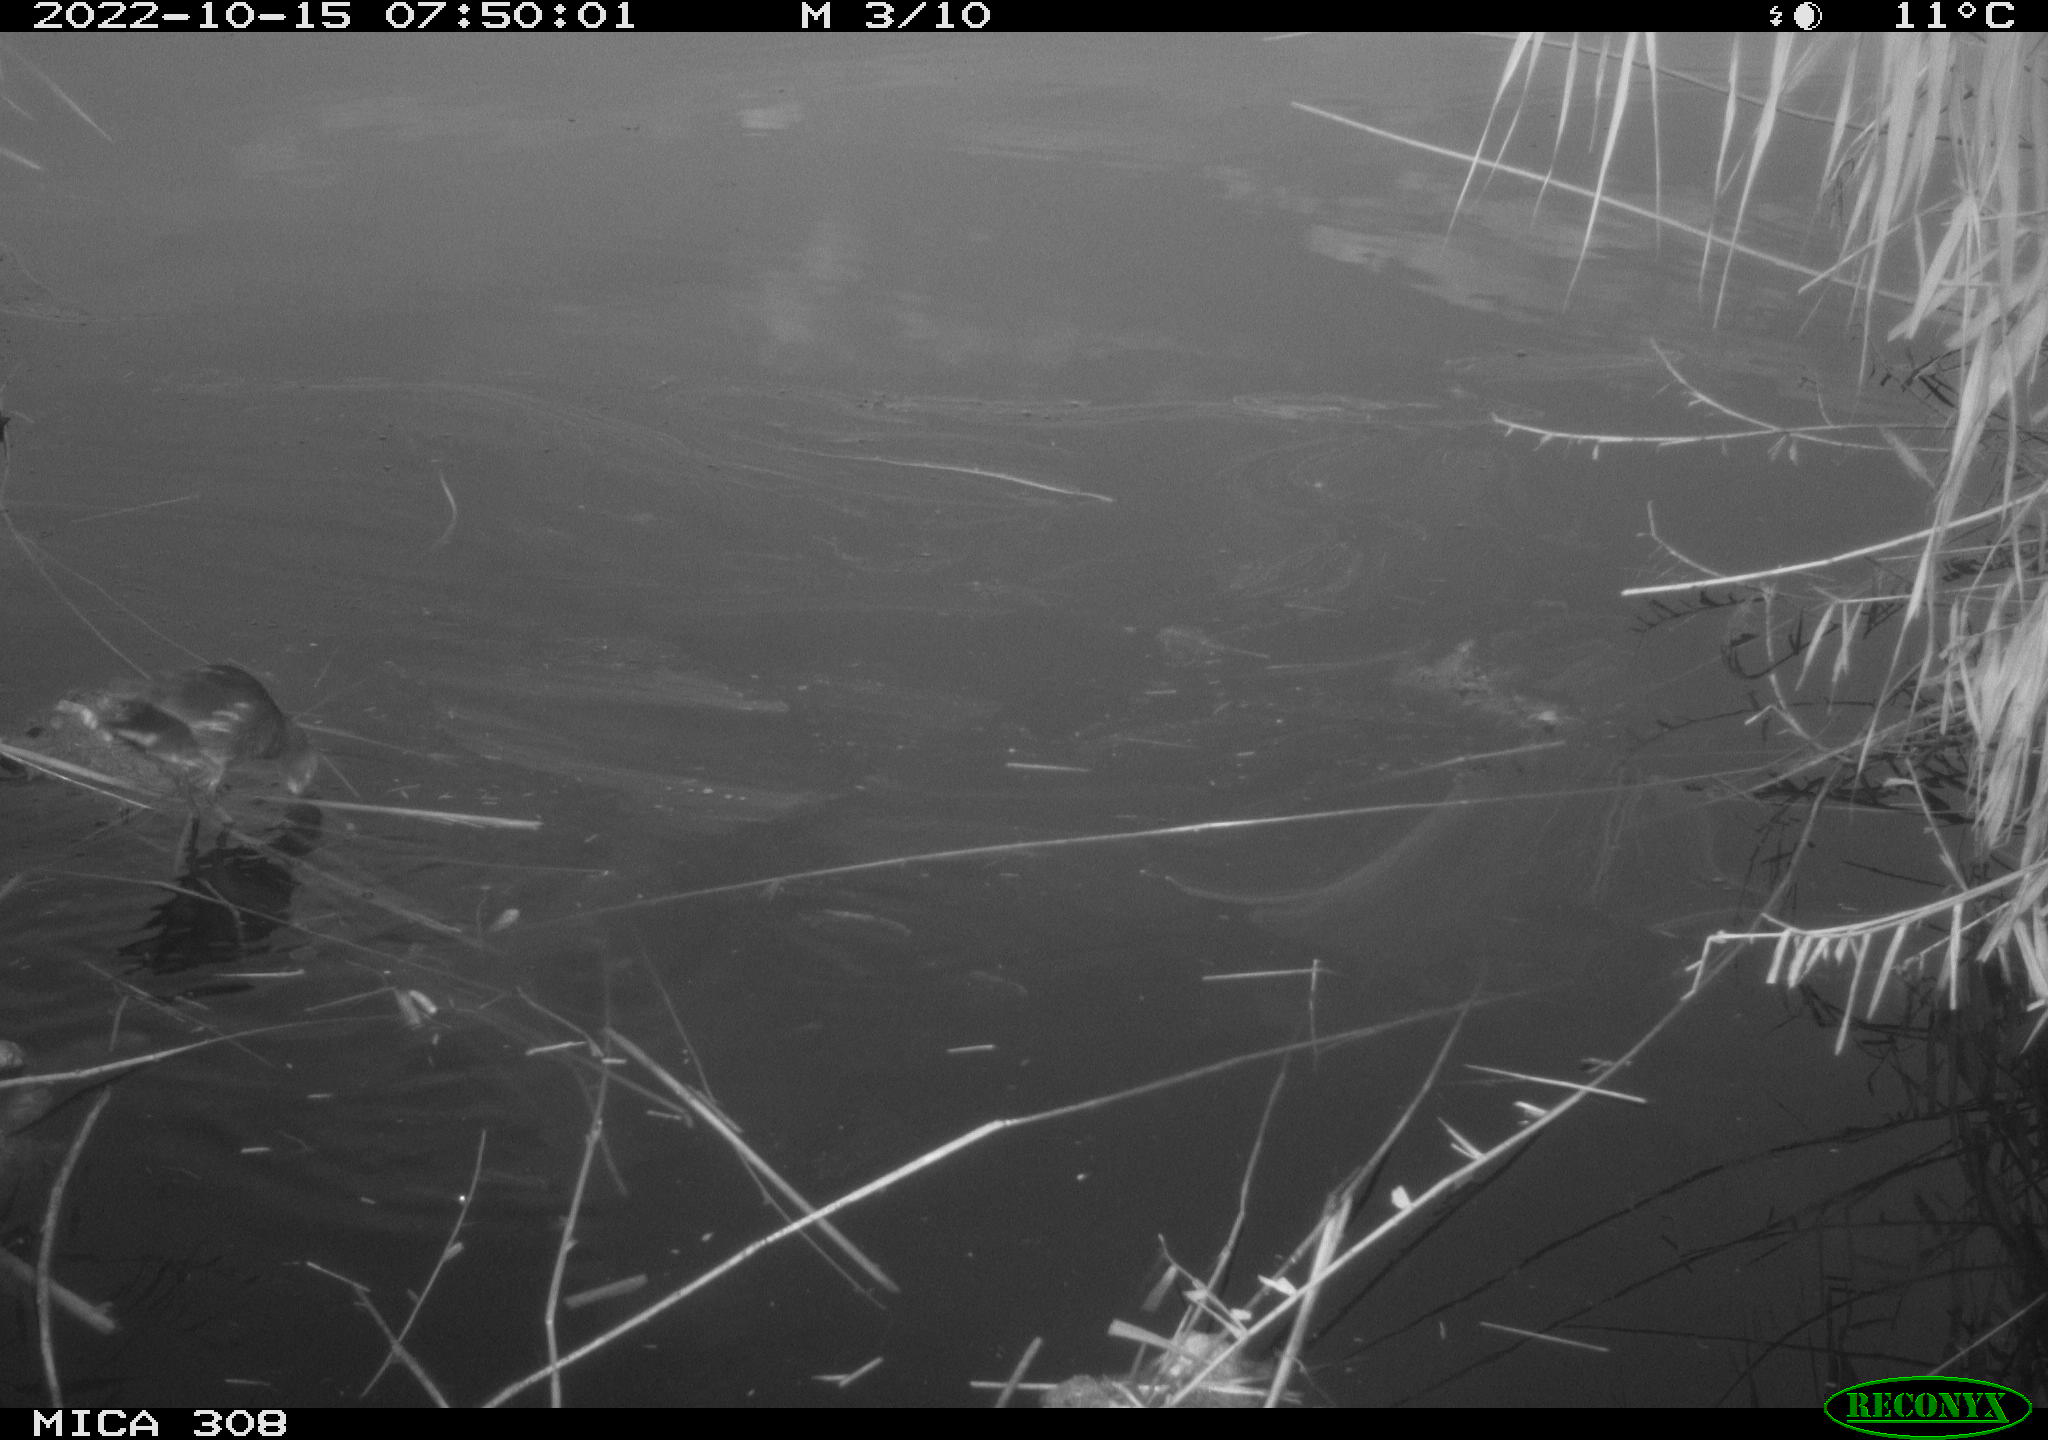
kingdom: Animalia
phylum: Chordata
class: Aves
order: Gruiformes
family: Rallidae
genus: Gallinula
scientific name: Gallinula chloropus
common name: Common moorhen
